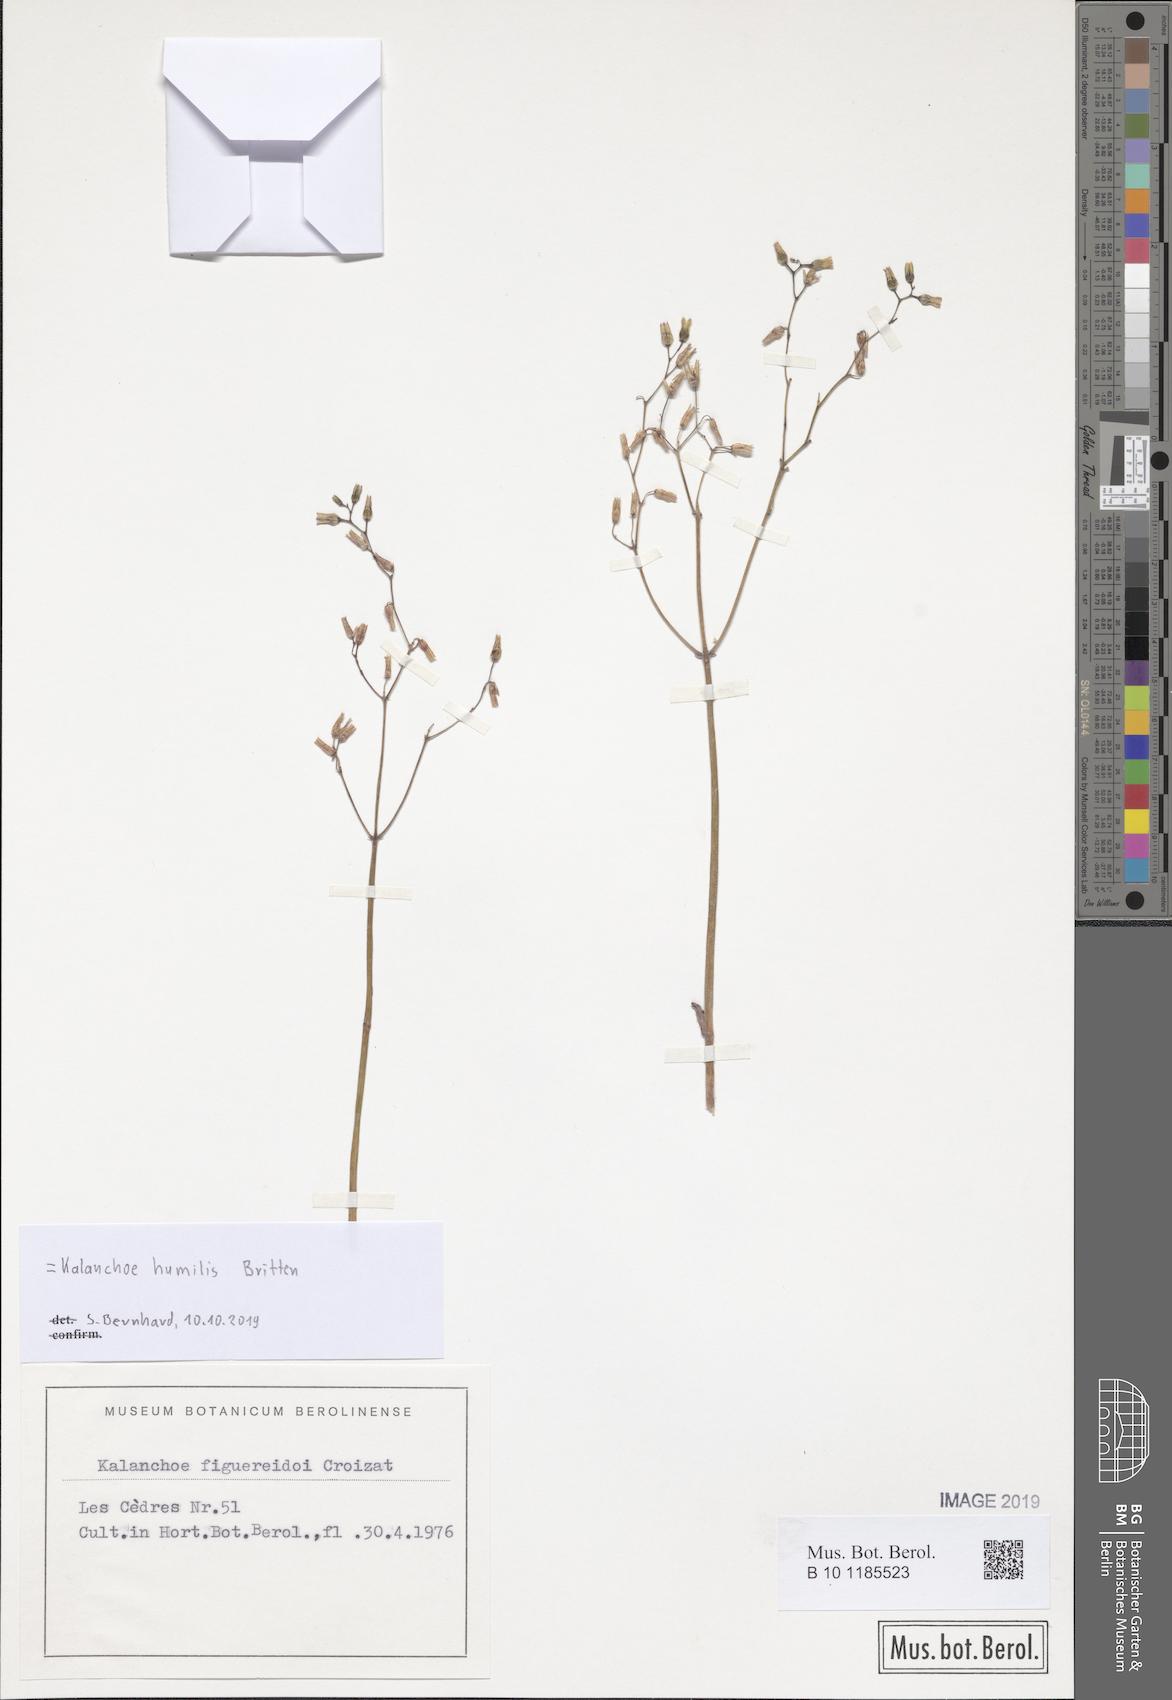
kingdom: Plantae
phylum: Tracheophyta
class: Magnoliopsida
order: Saxifragales
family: Crassulaceae
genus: Kalanchoe
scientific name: Kalanchoe humilis
